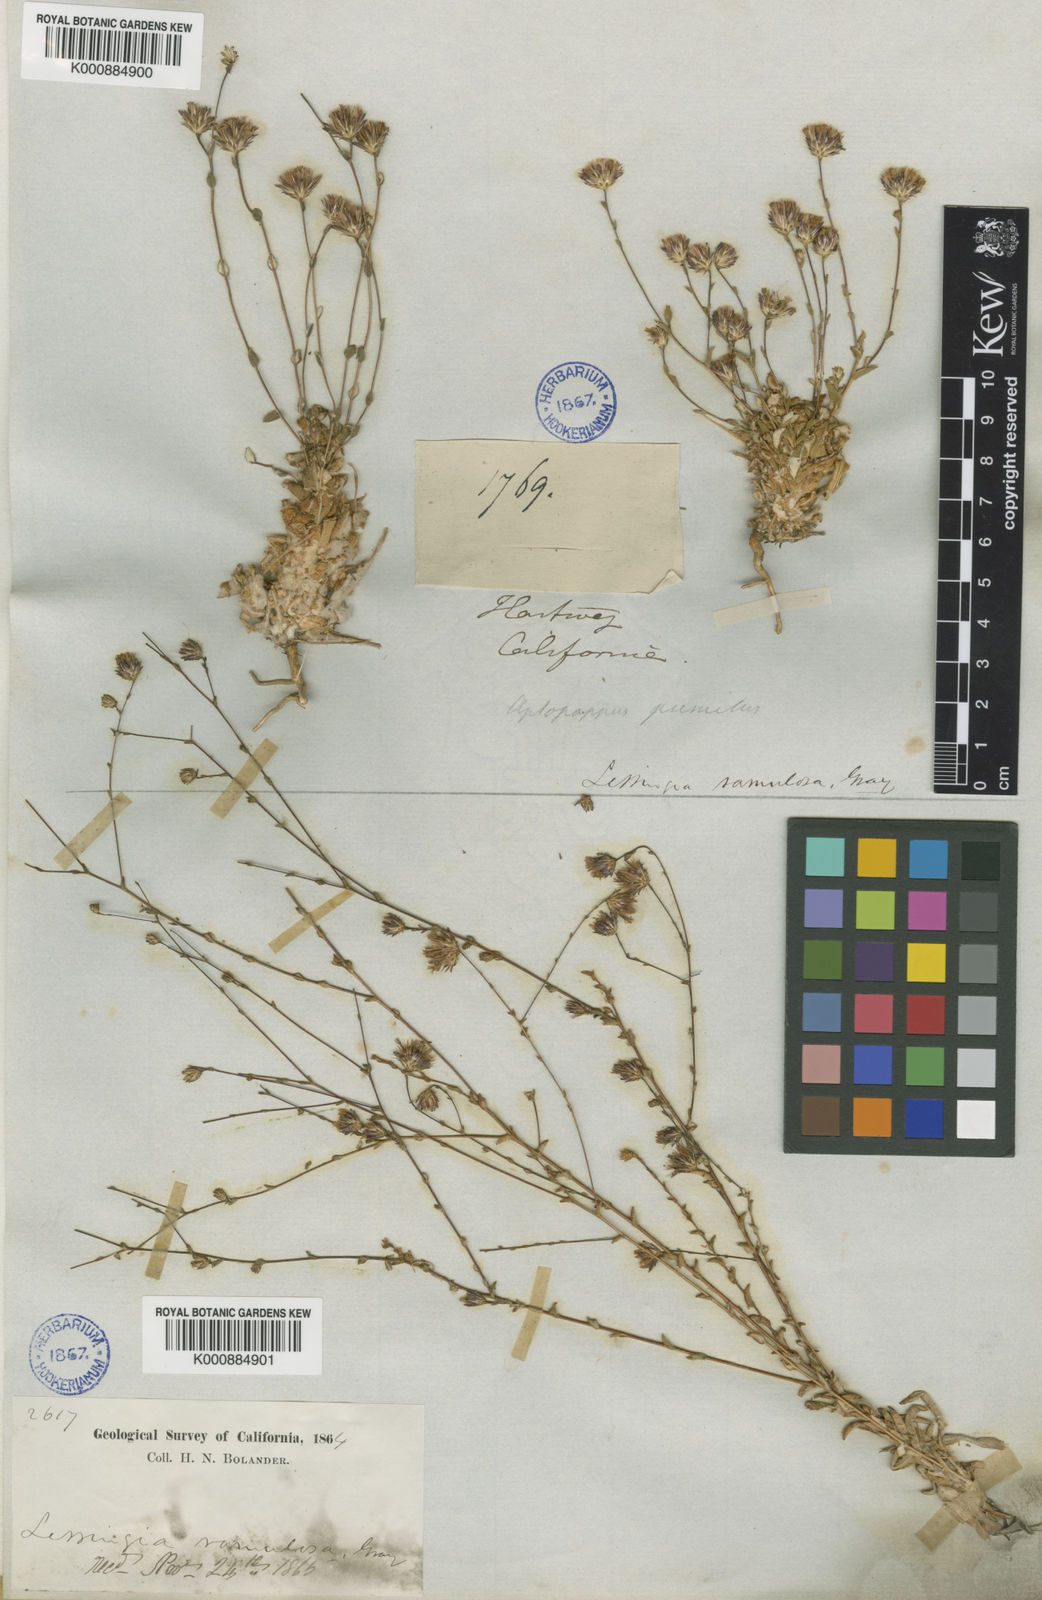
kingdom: Plantae
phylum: Tracheophyta
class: Magnoliopsida
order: Asterales
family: Asteraceae
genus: Lessingia
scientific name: Lessingia
